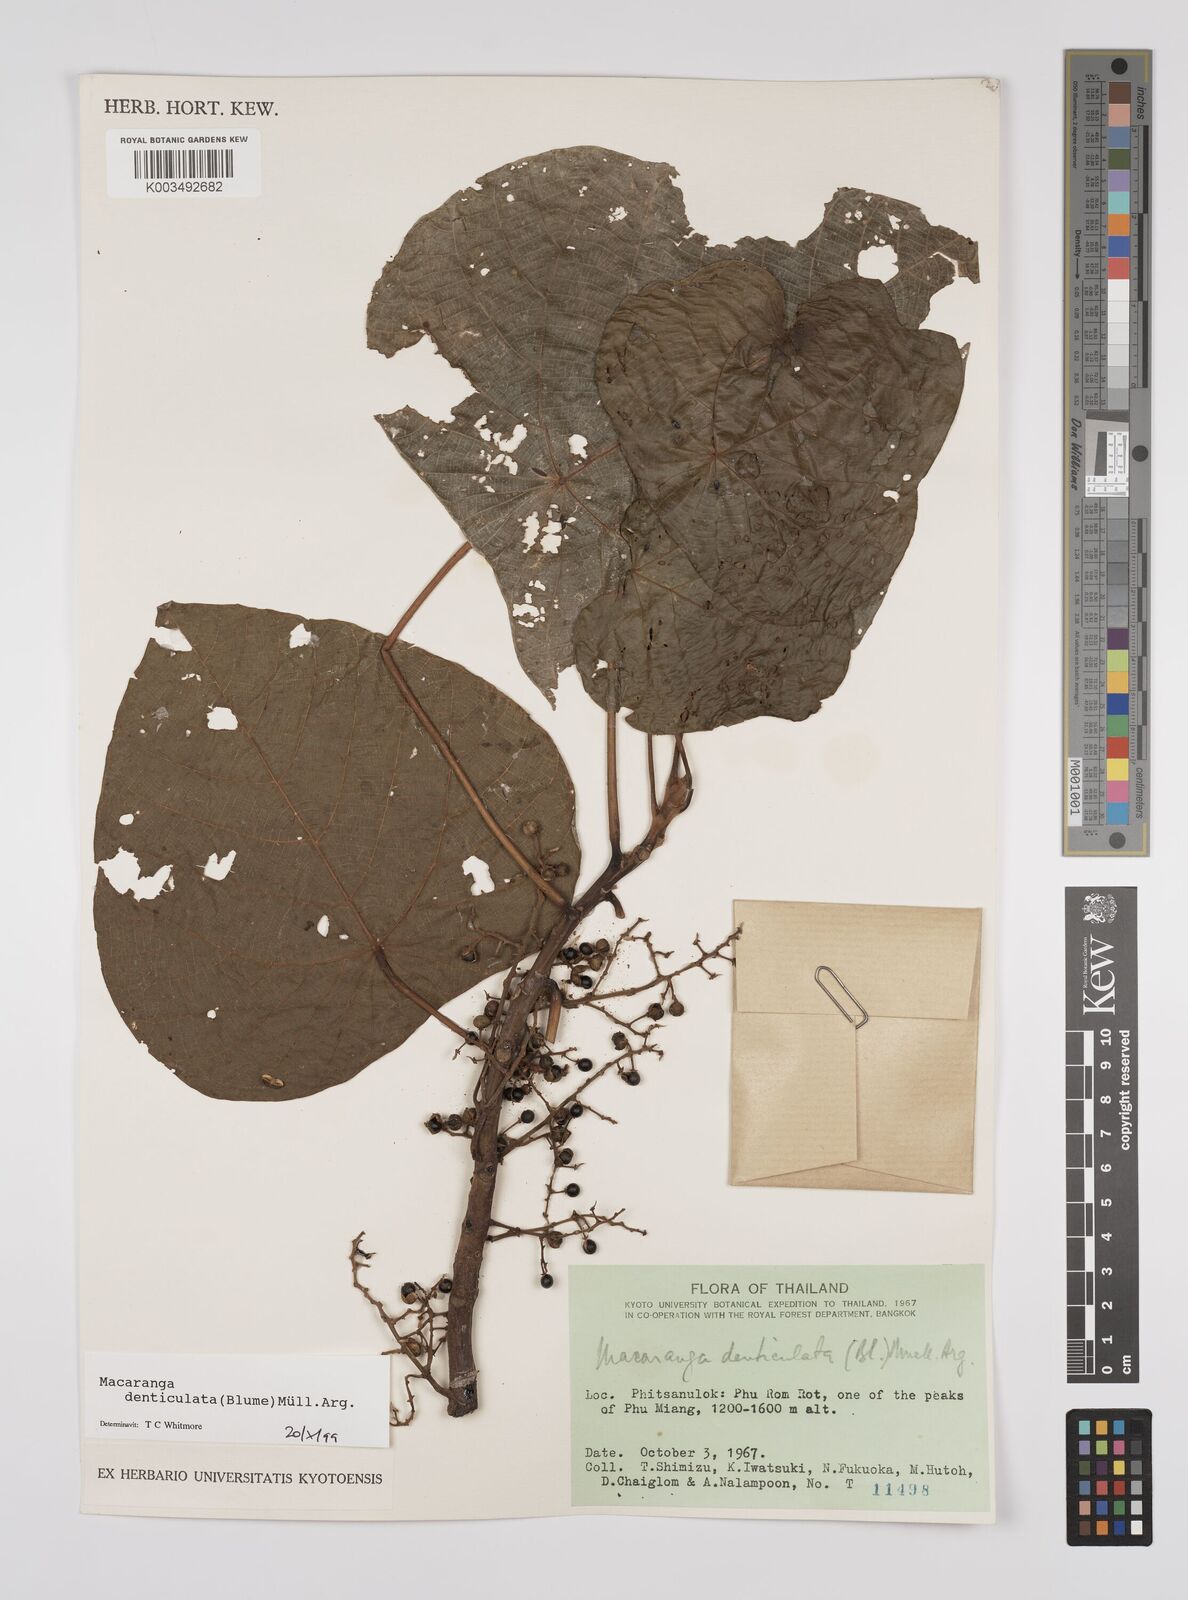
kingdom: Plantae
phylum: Tracheophyta
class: Magnoliopsida
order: Malpighiales
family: Euphorbiaceae
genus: Macaranga
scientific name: Macaranga denticulata
